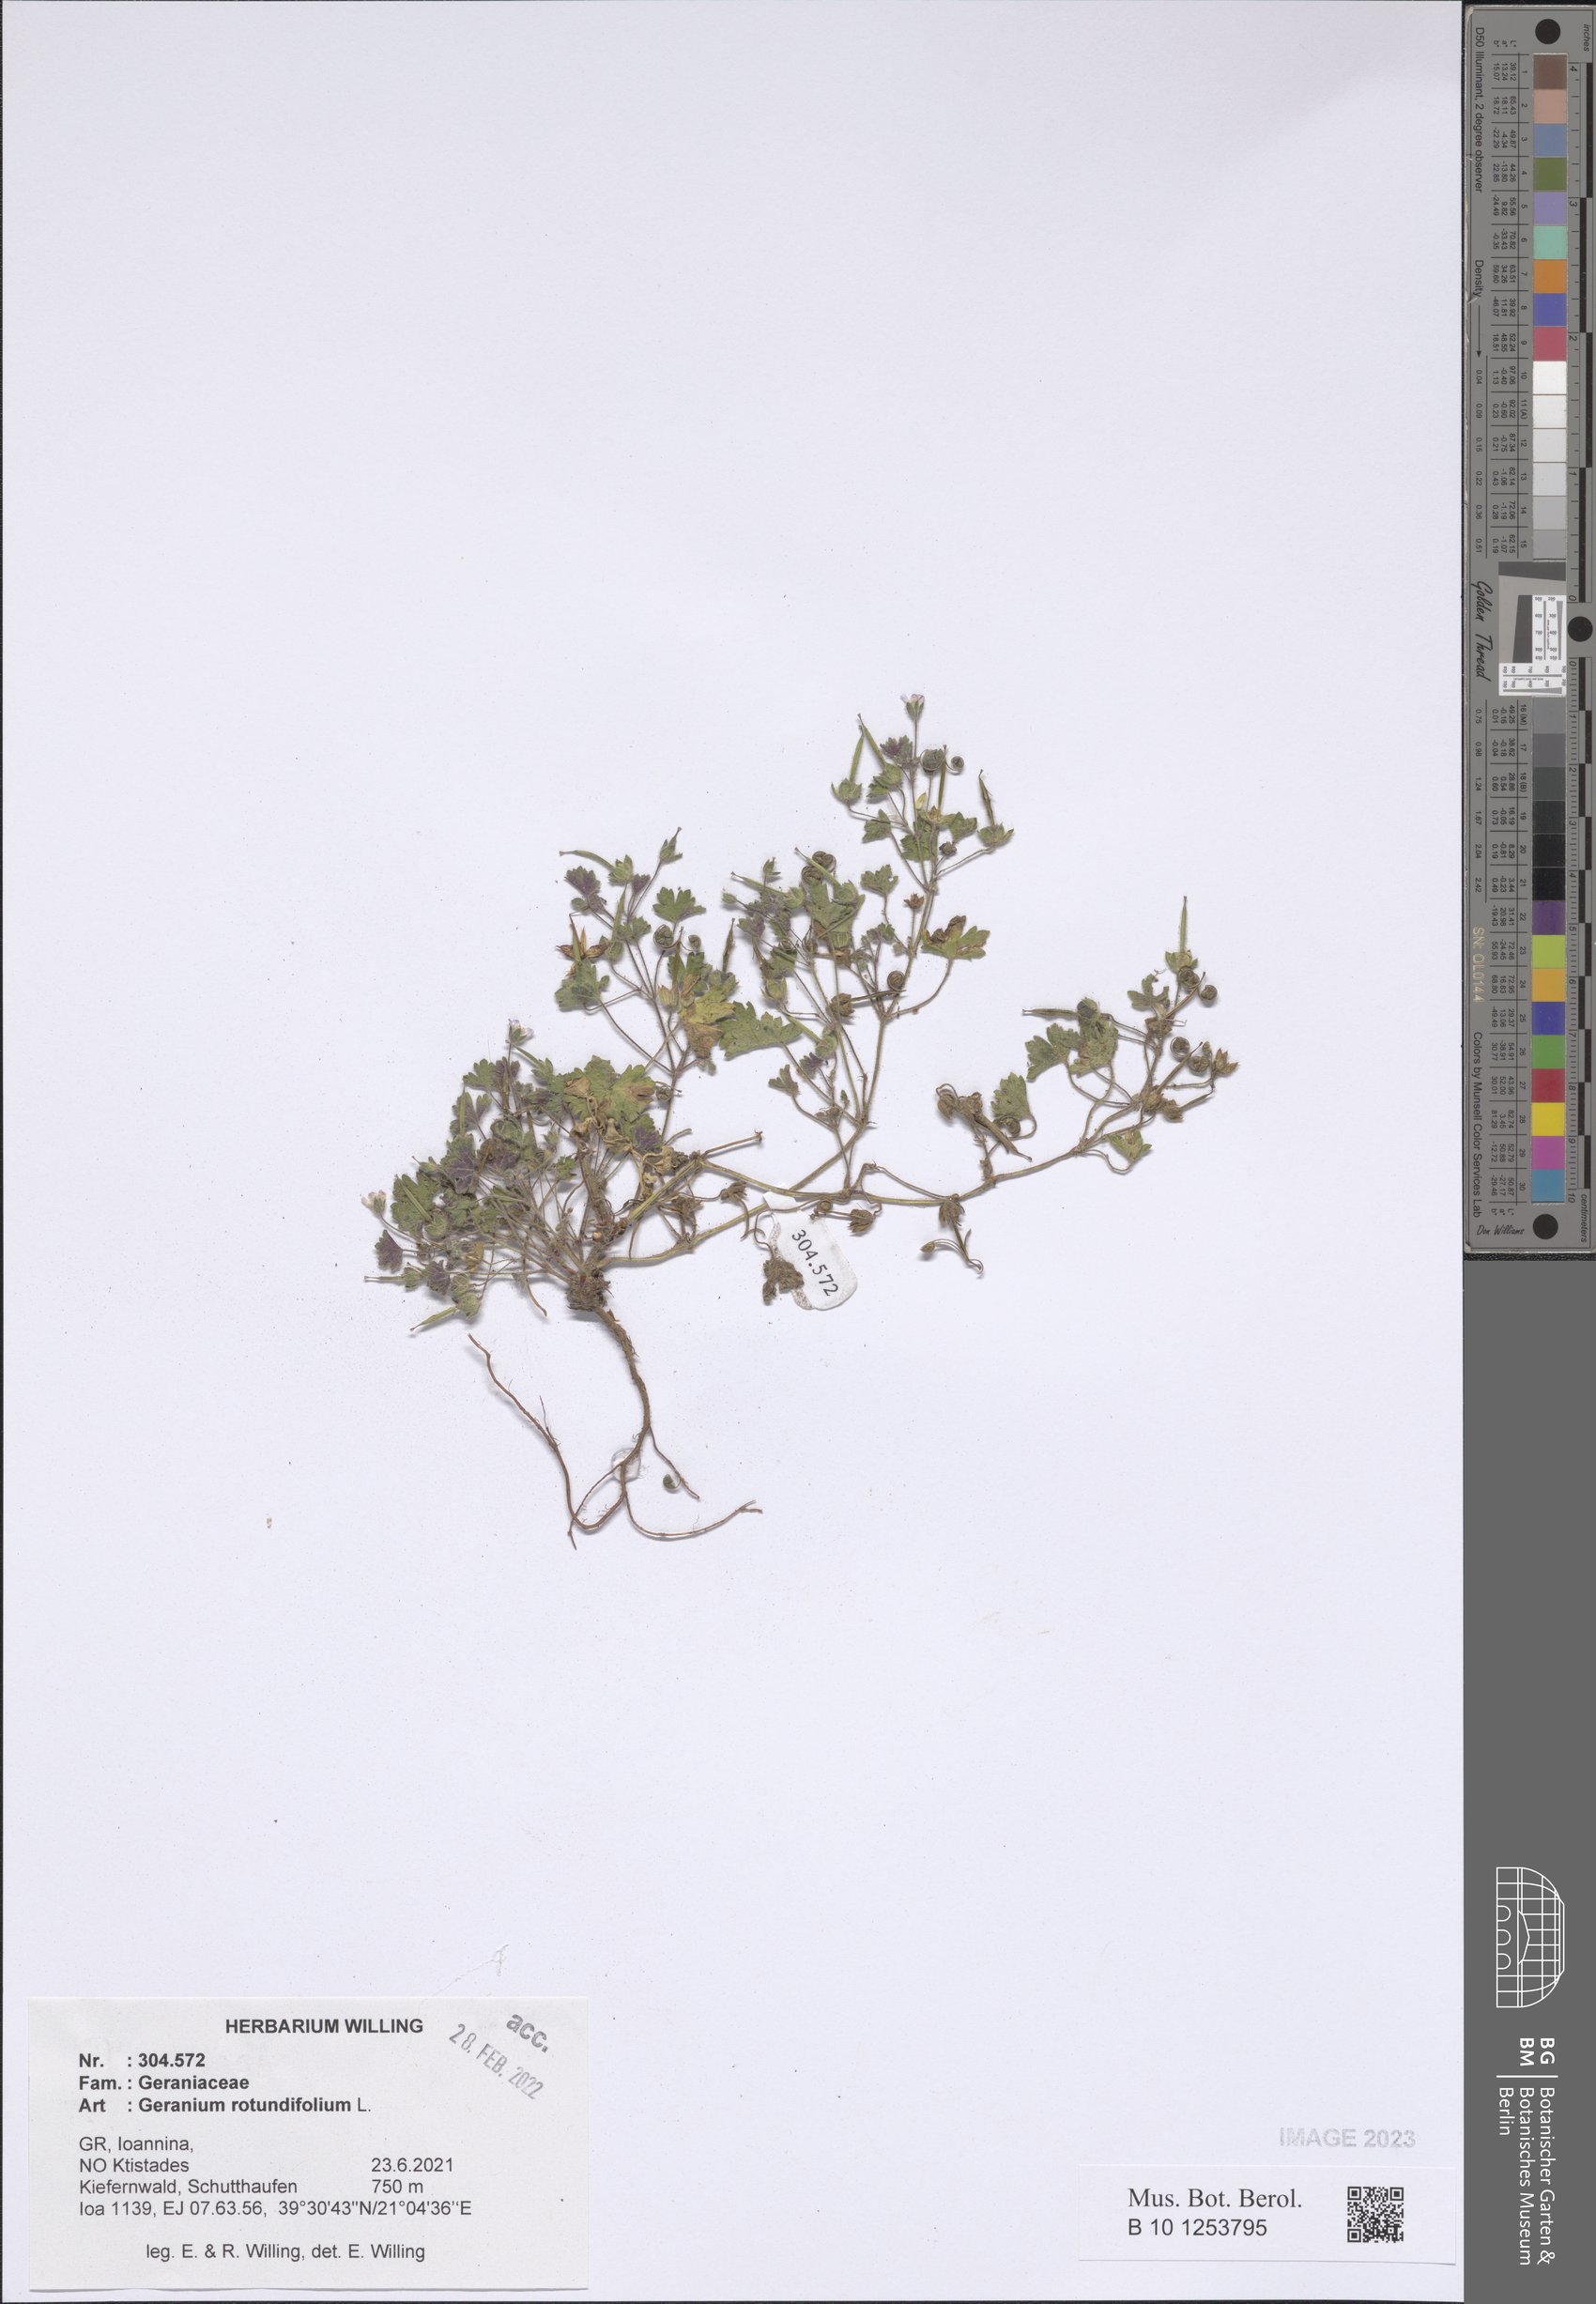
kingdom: Plantae
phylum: Tracheophyta
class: Magnoliopsida
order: Geraniales
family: Geraniaceae
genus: Geranium
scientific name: Geranium rotundifolium
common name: Round-leaved crane's-bill
